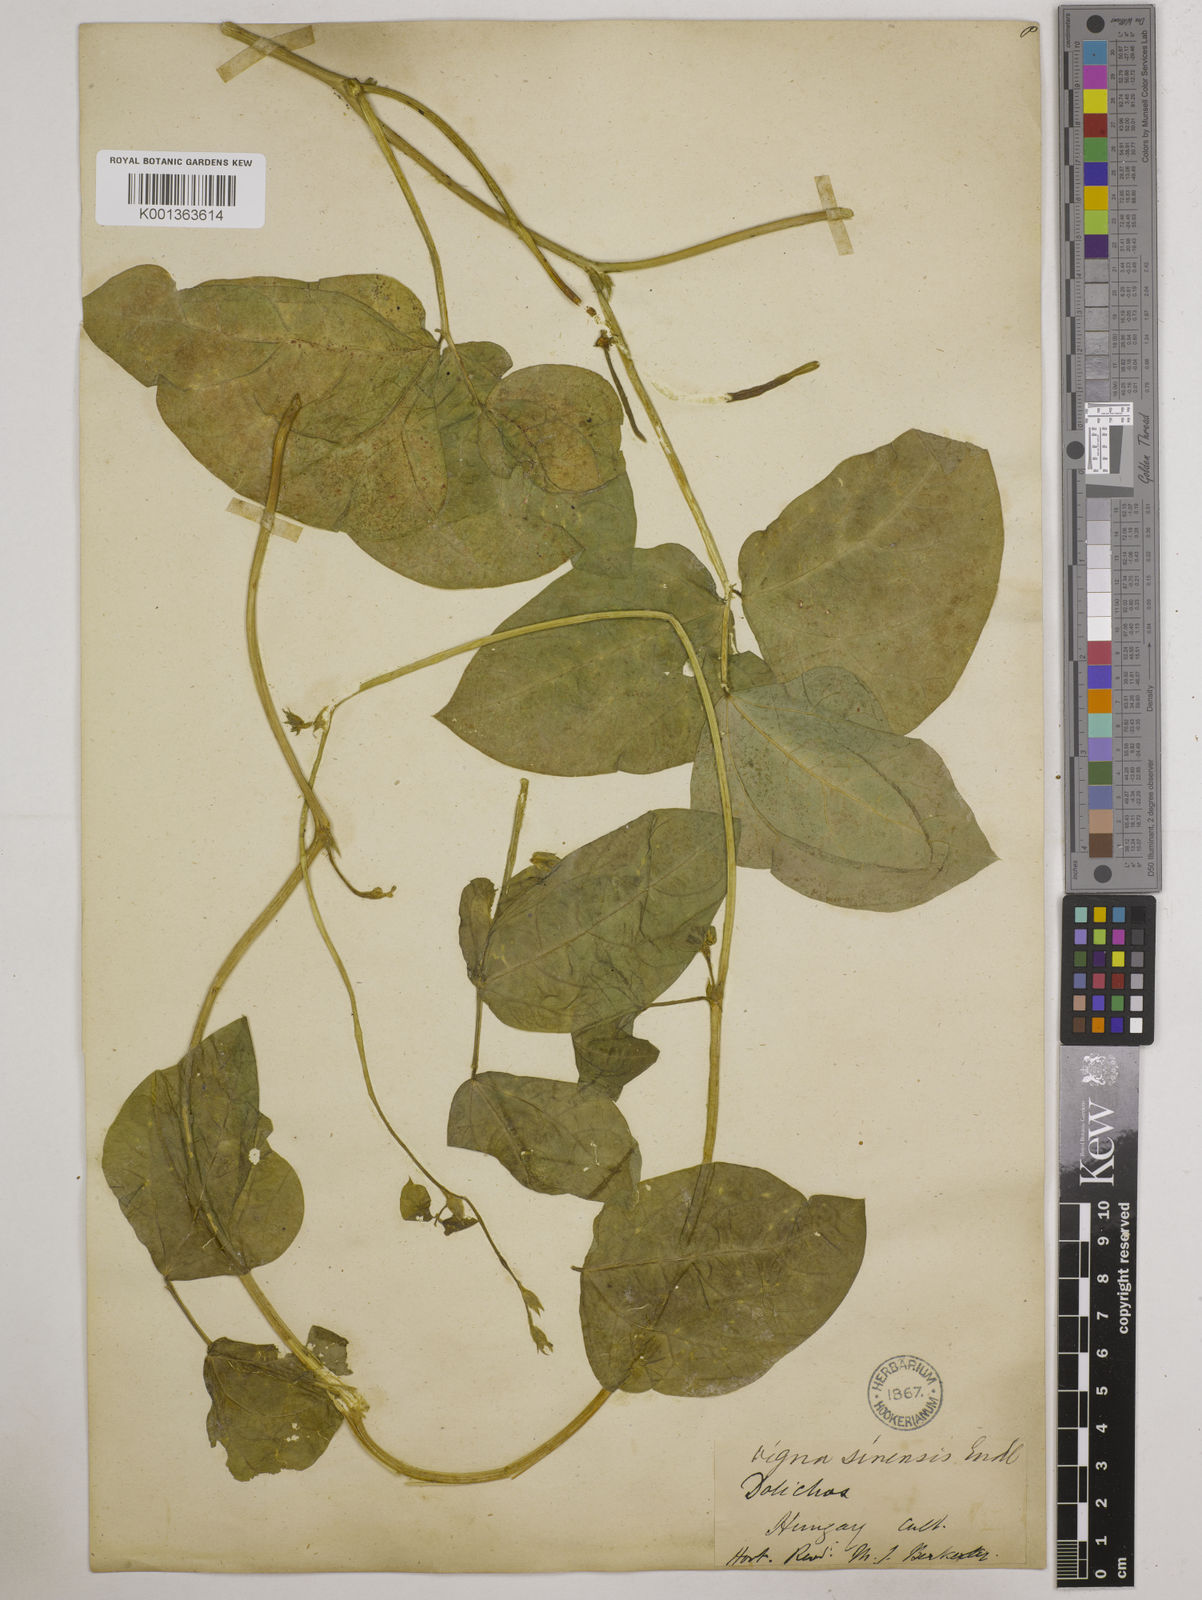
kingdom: Plantae
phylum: Tracheophyta
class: Magnoliopsida
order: Fabales
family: Fabaceae
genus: Vigna
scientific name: Vigna unguiculata
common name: Cowpea
